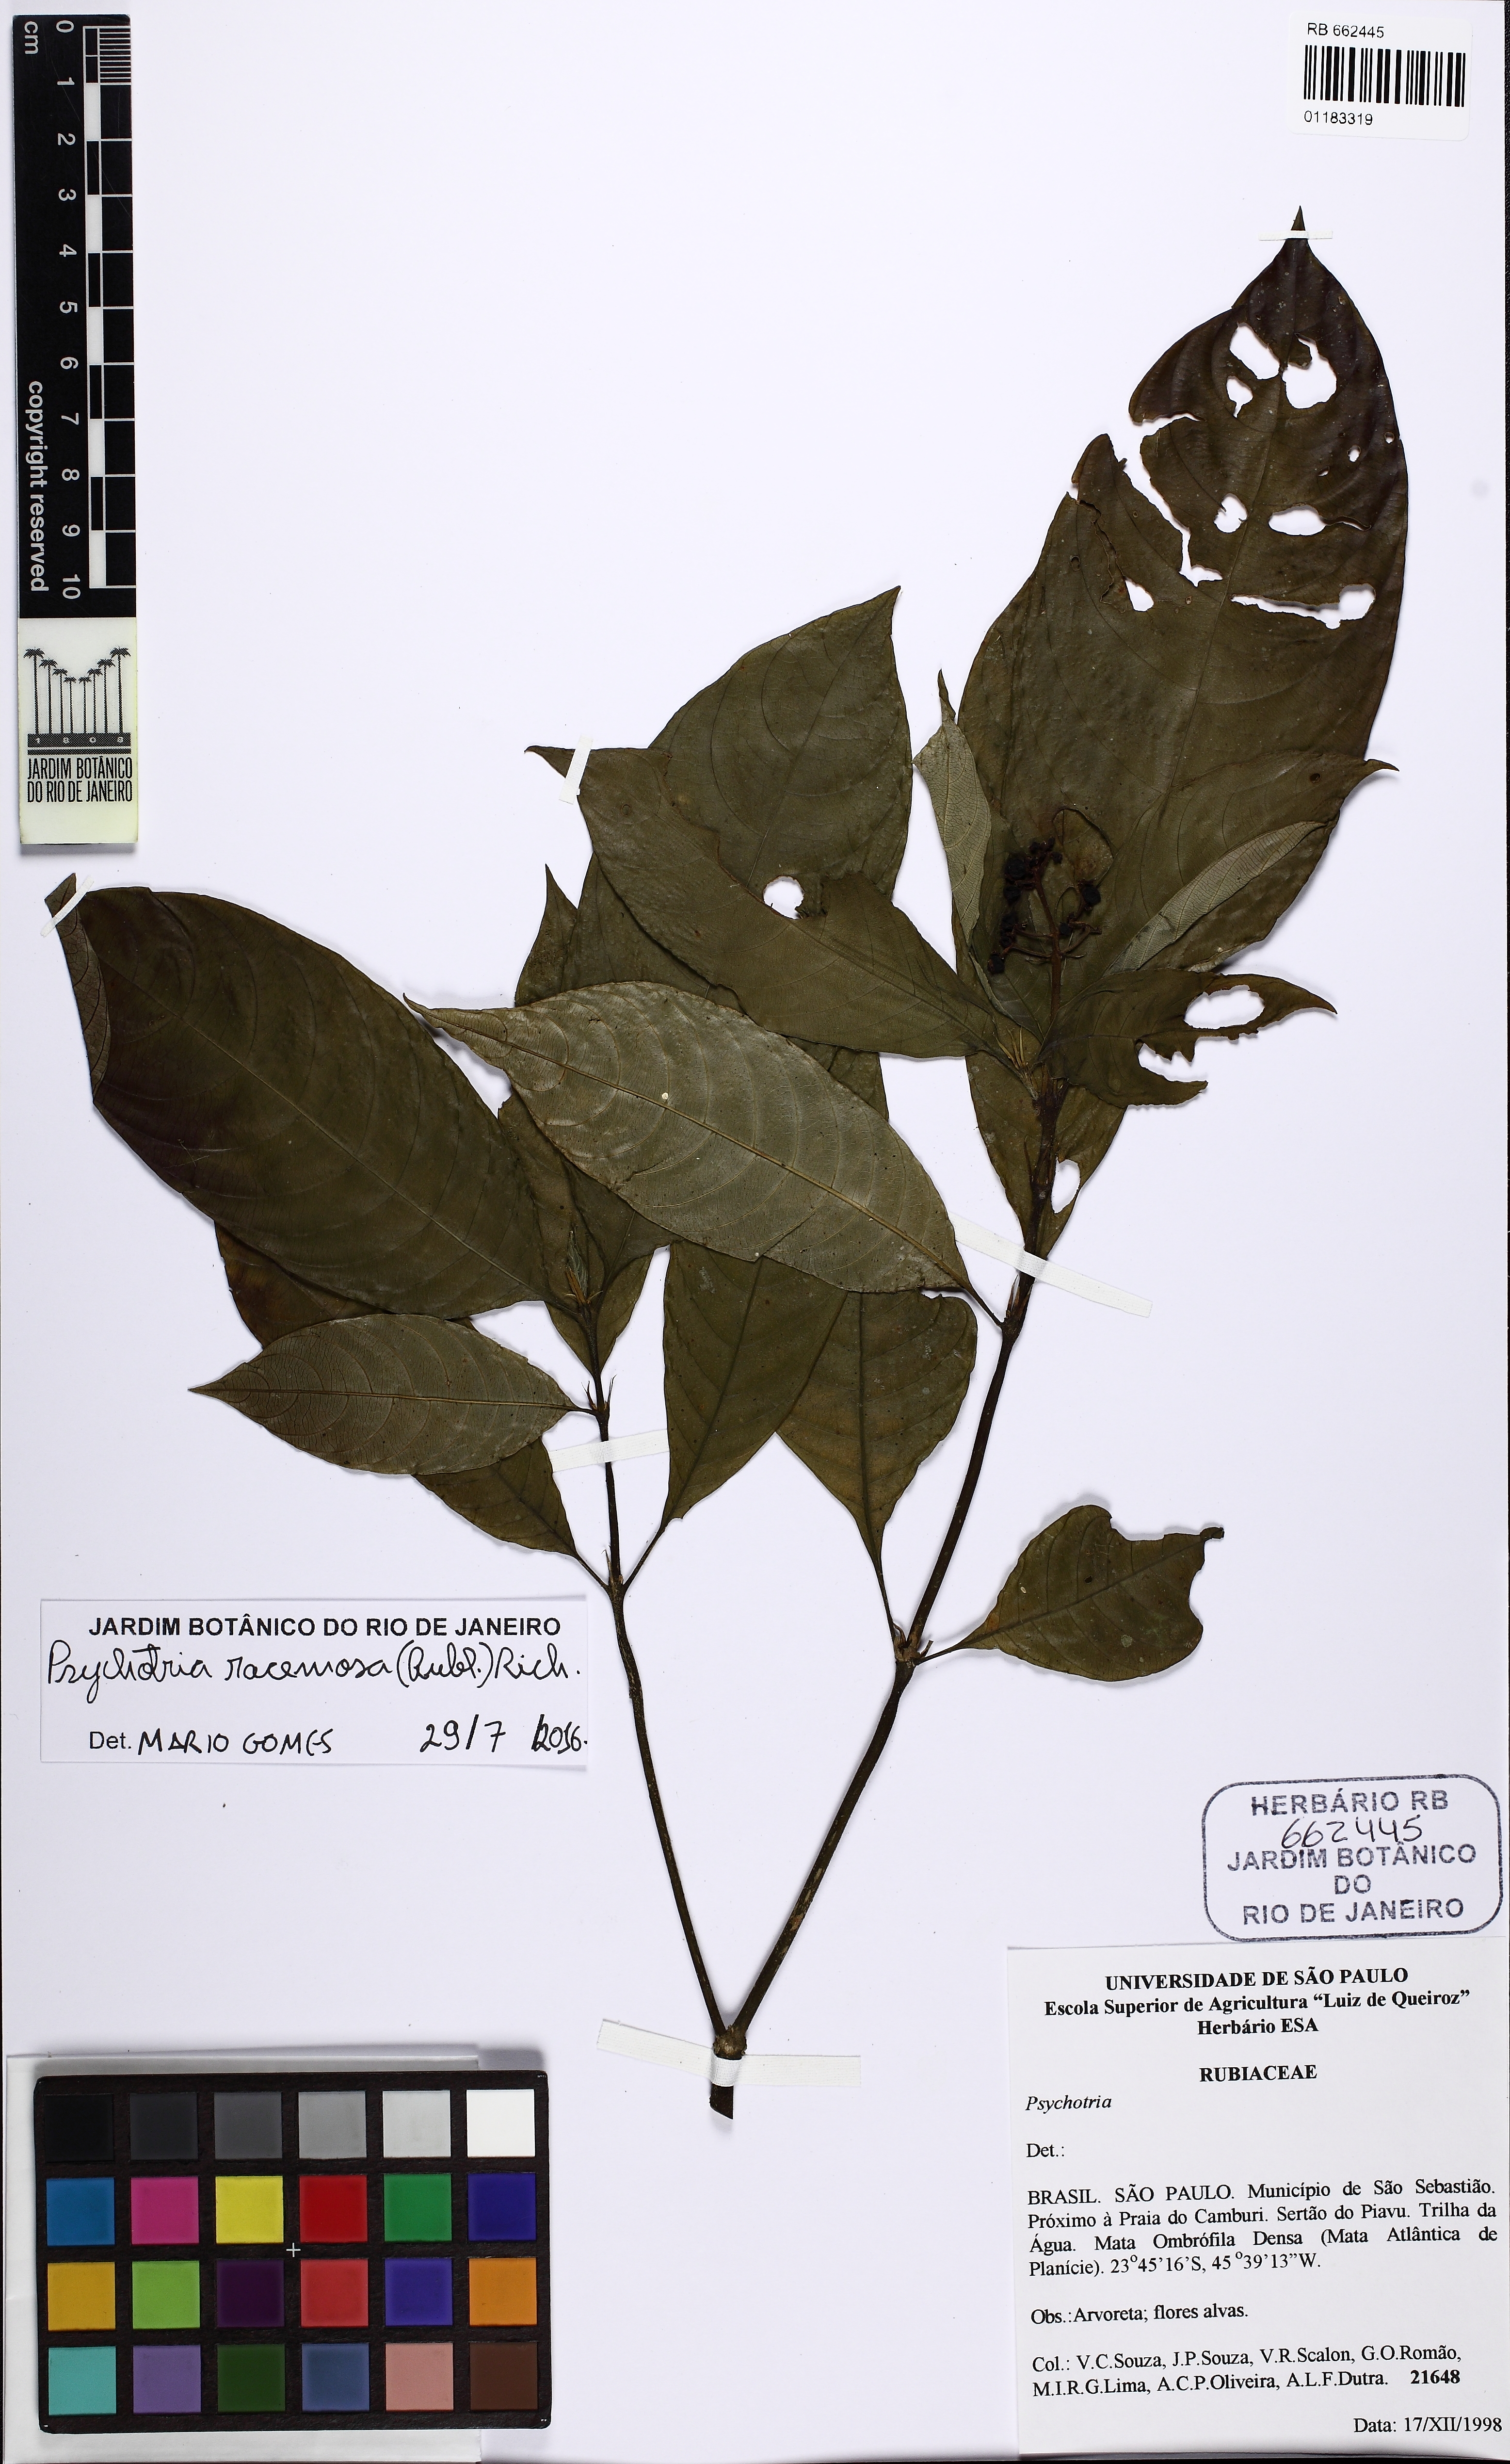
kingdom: Plantae
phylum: Tracheophyta
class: Magnoliopsida
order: Gentianales
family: Rubiaceae
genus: Palicourea
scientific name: Palicourea racemosa
